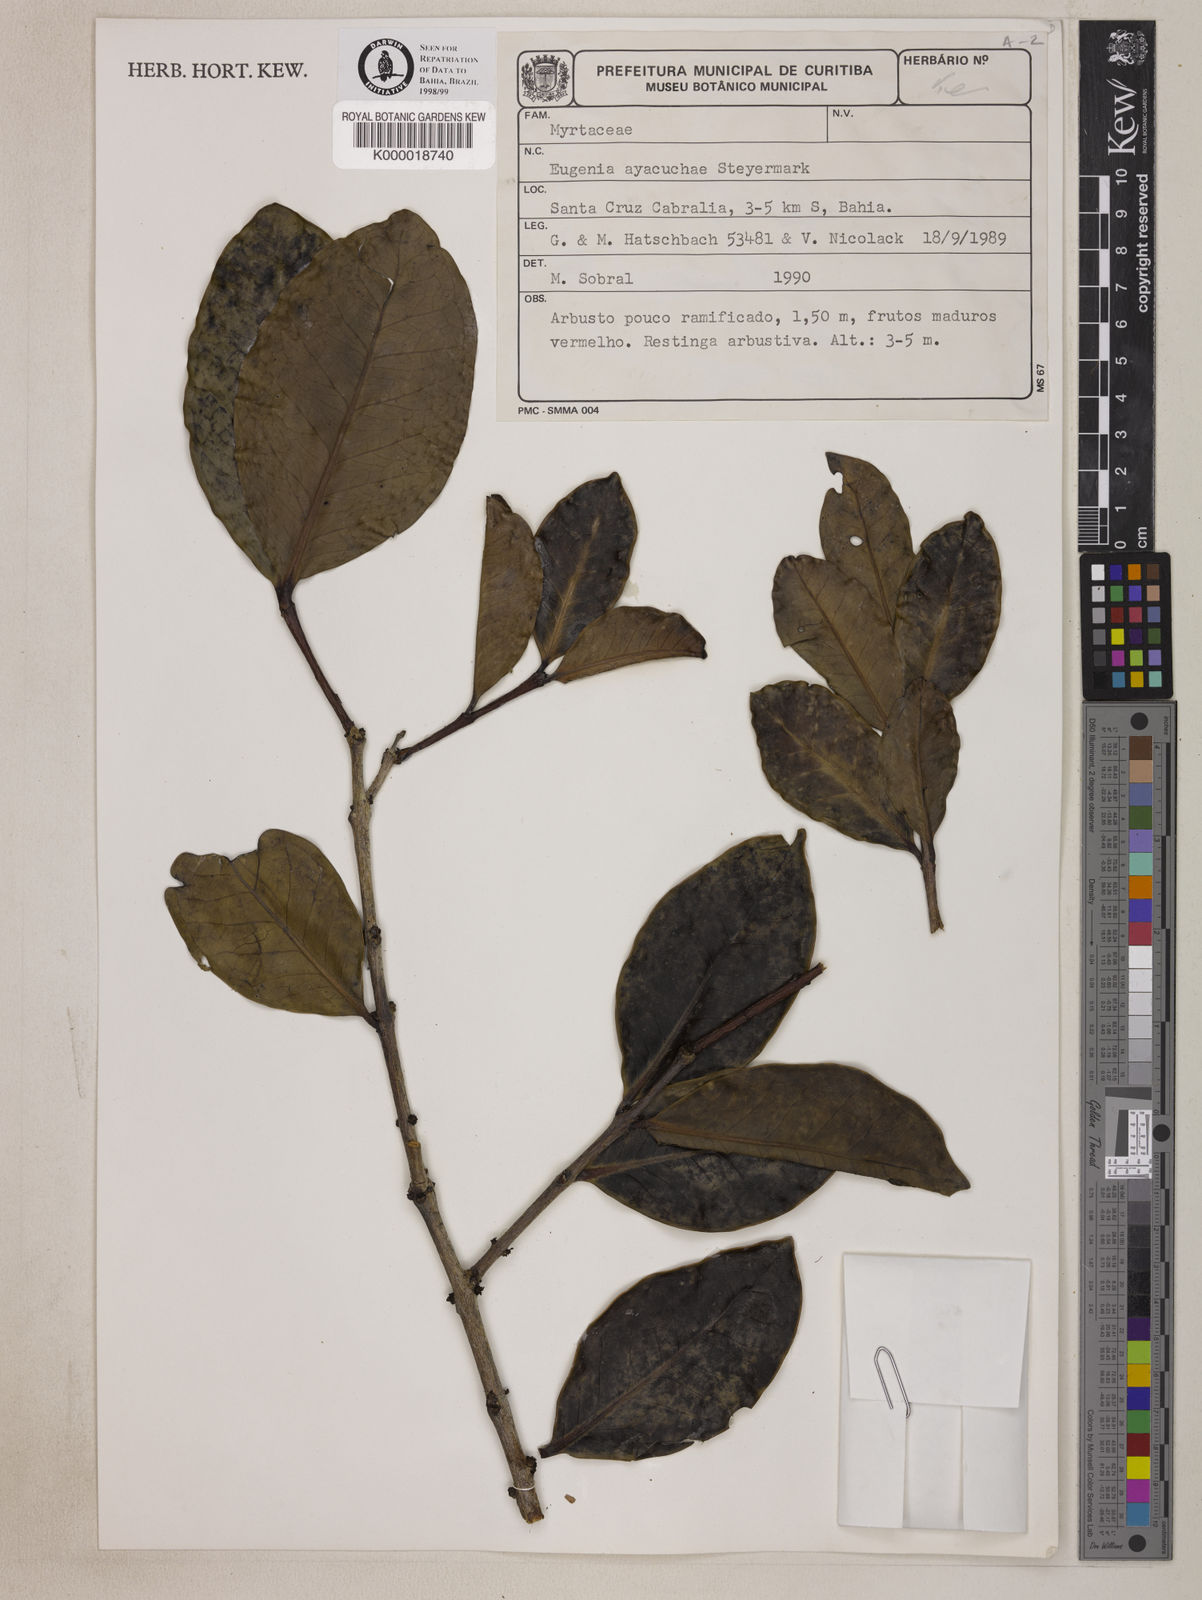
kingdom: Plantae
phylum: Tracheophyta
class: Magnoliopsida
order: Myrtales
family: Myrtaceae
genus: Eugenia
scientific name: Eugenia ayacuchae
